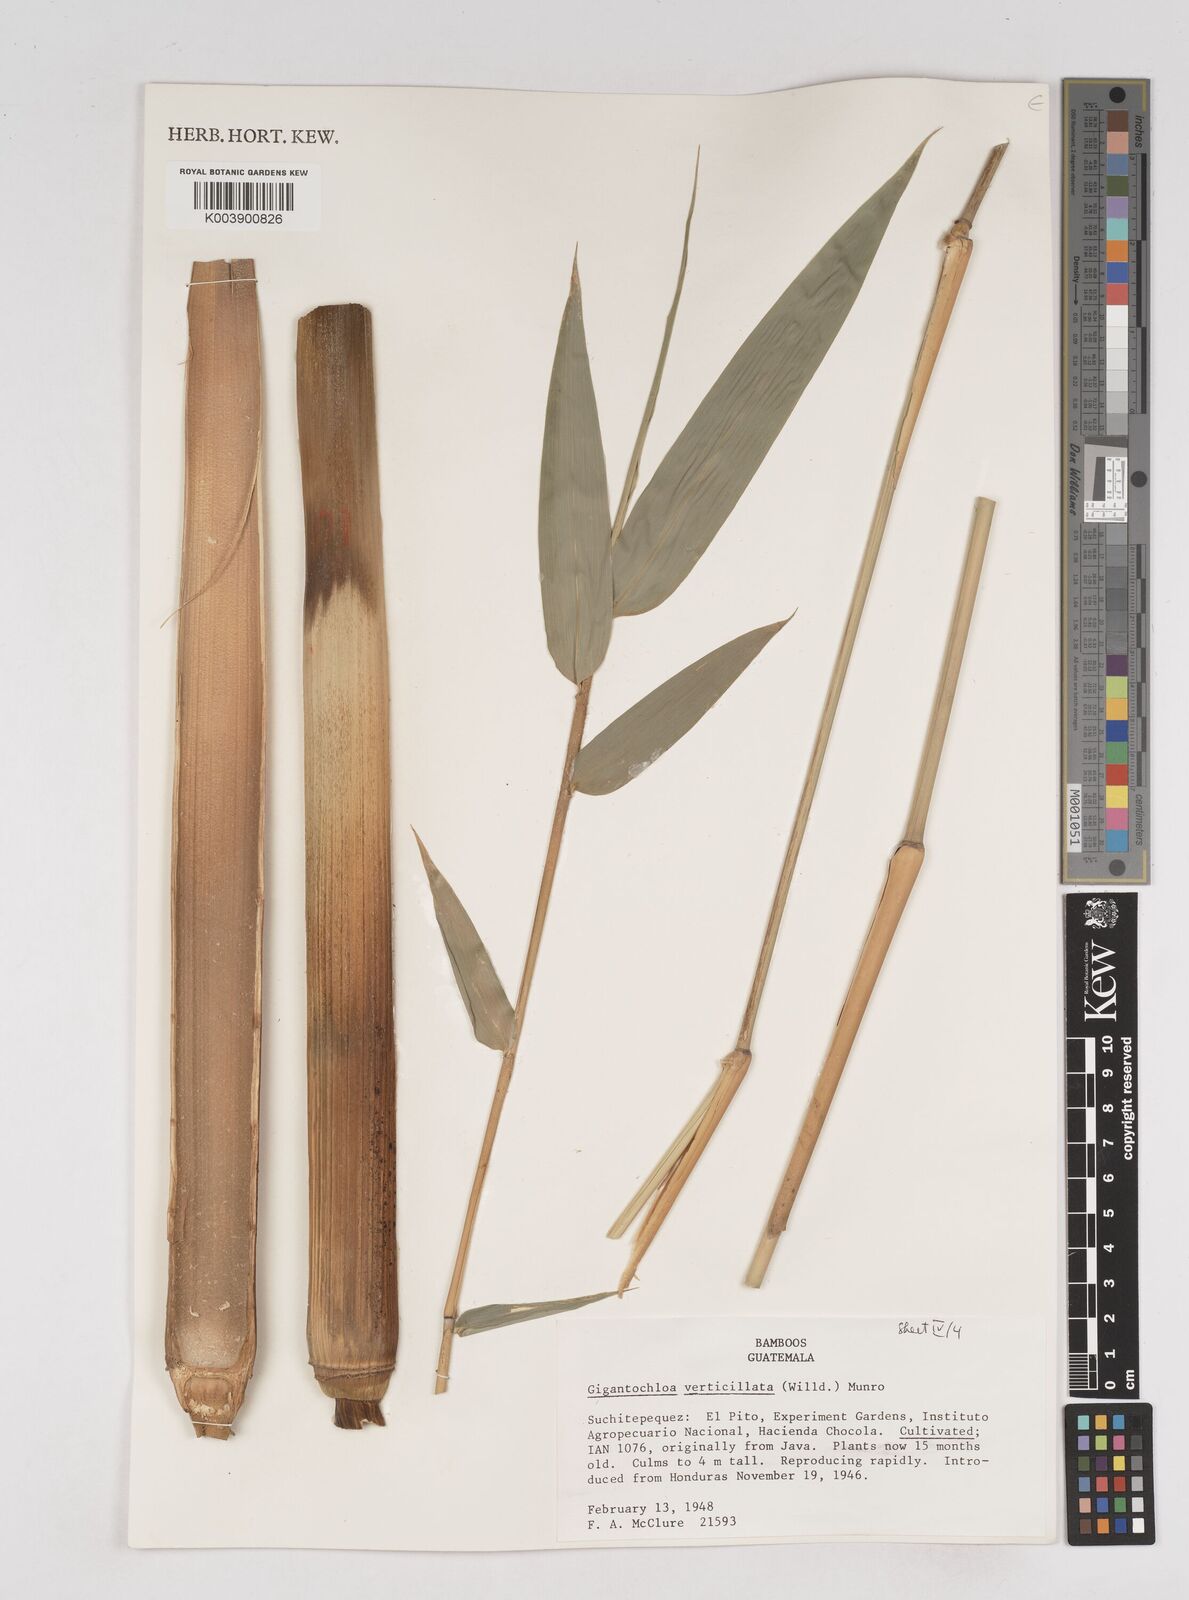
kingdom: Plantae
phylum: Tracheophyta
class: Liliopsida
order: Poales
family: Poaceae
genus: Gigantochloa
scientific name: Gigantochloa verticillata
